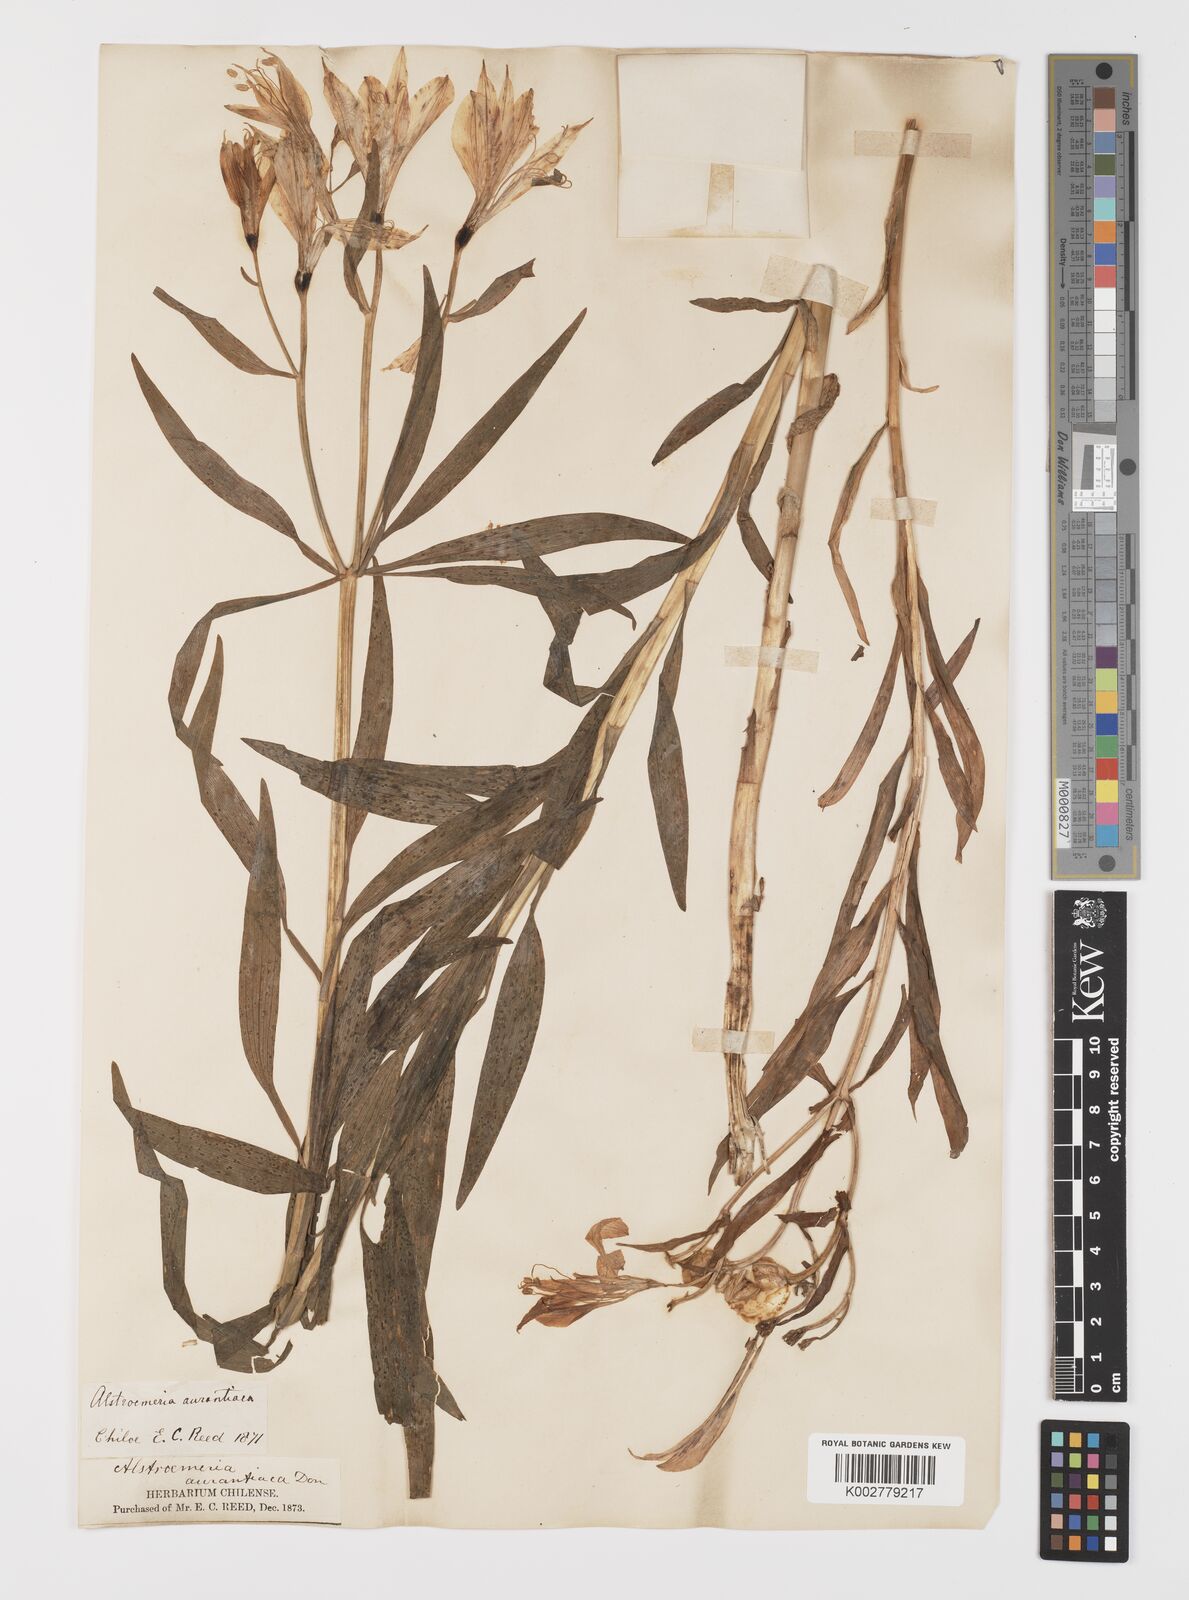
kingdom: Plantae
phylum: Tracheophyta
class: Liliopsida
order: Liliales
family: Alstroemeriaceae
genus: Alstroemeria
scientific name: Alstroemeria aurea
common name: Peruvian lily
